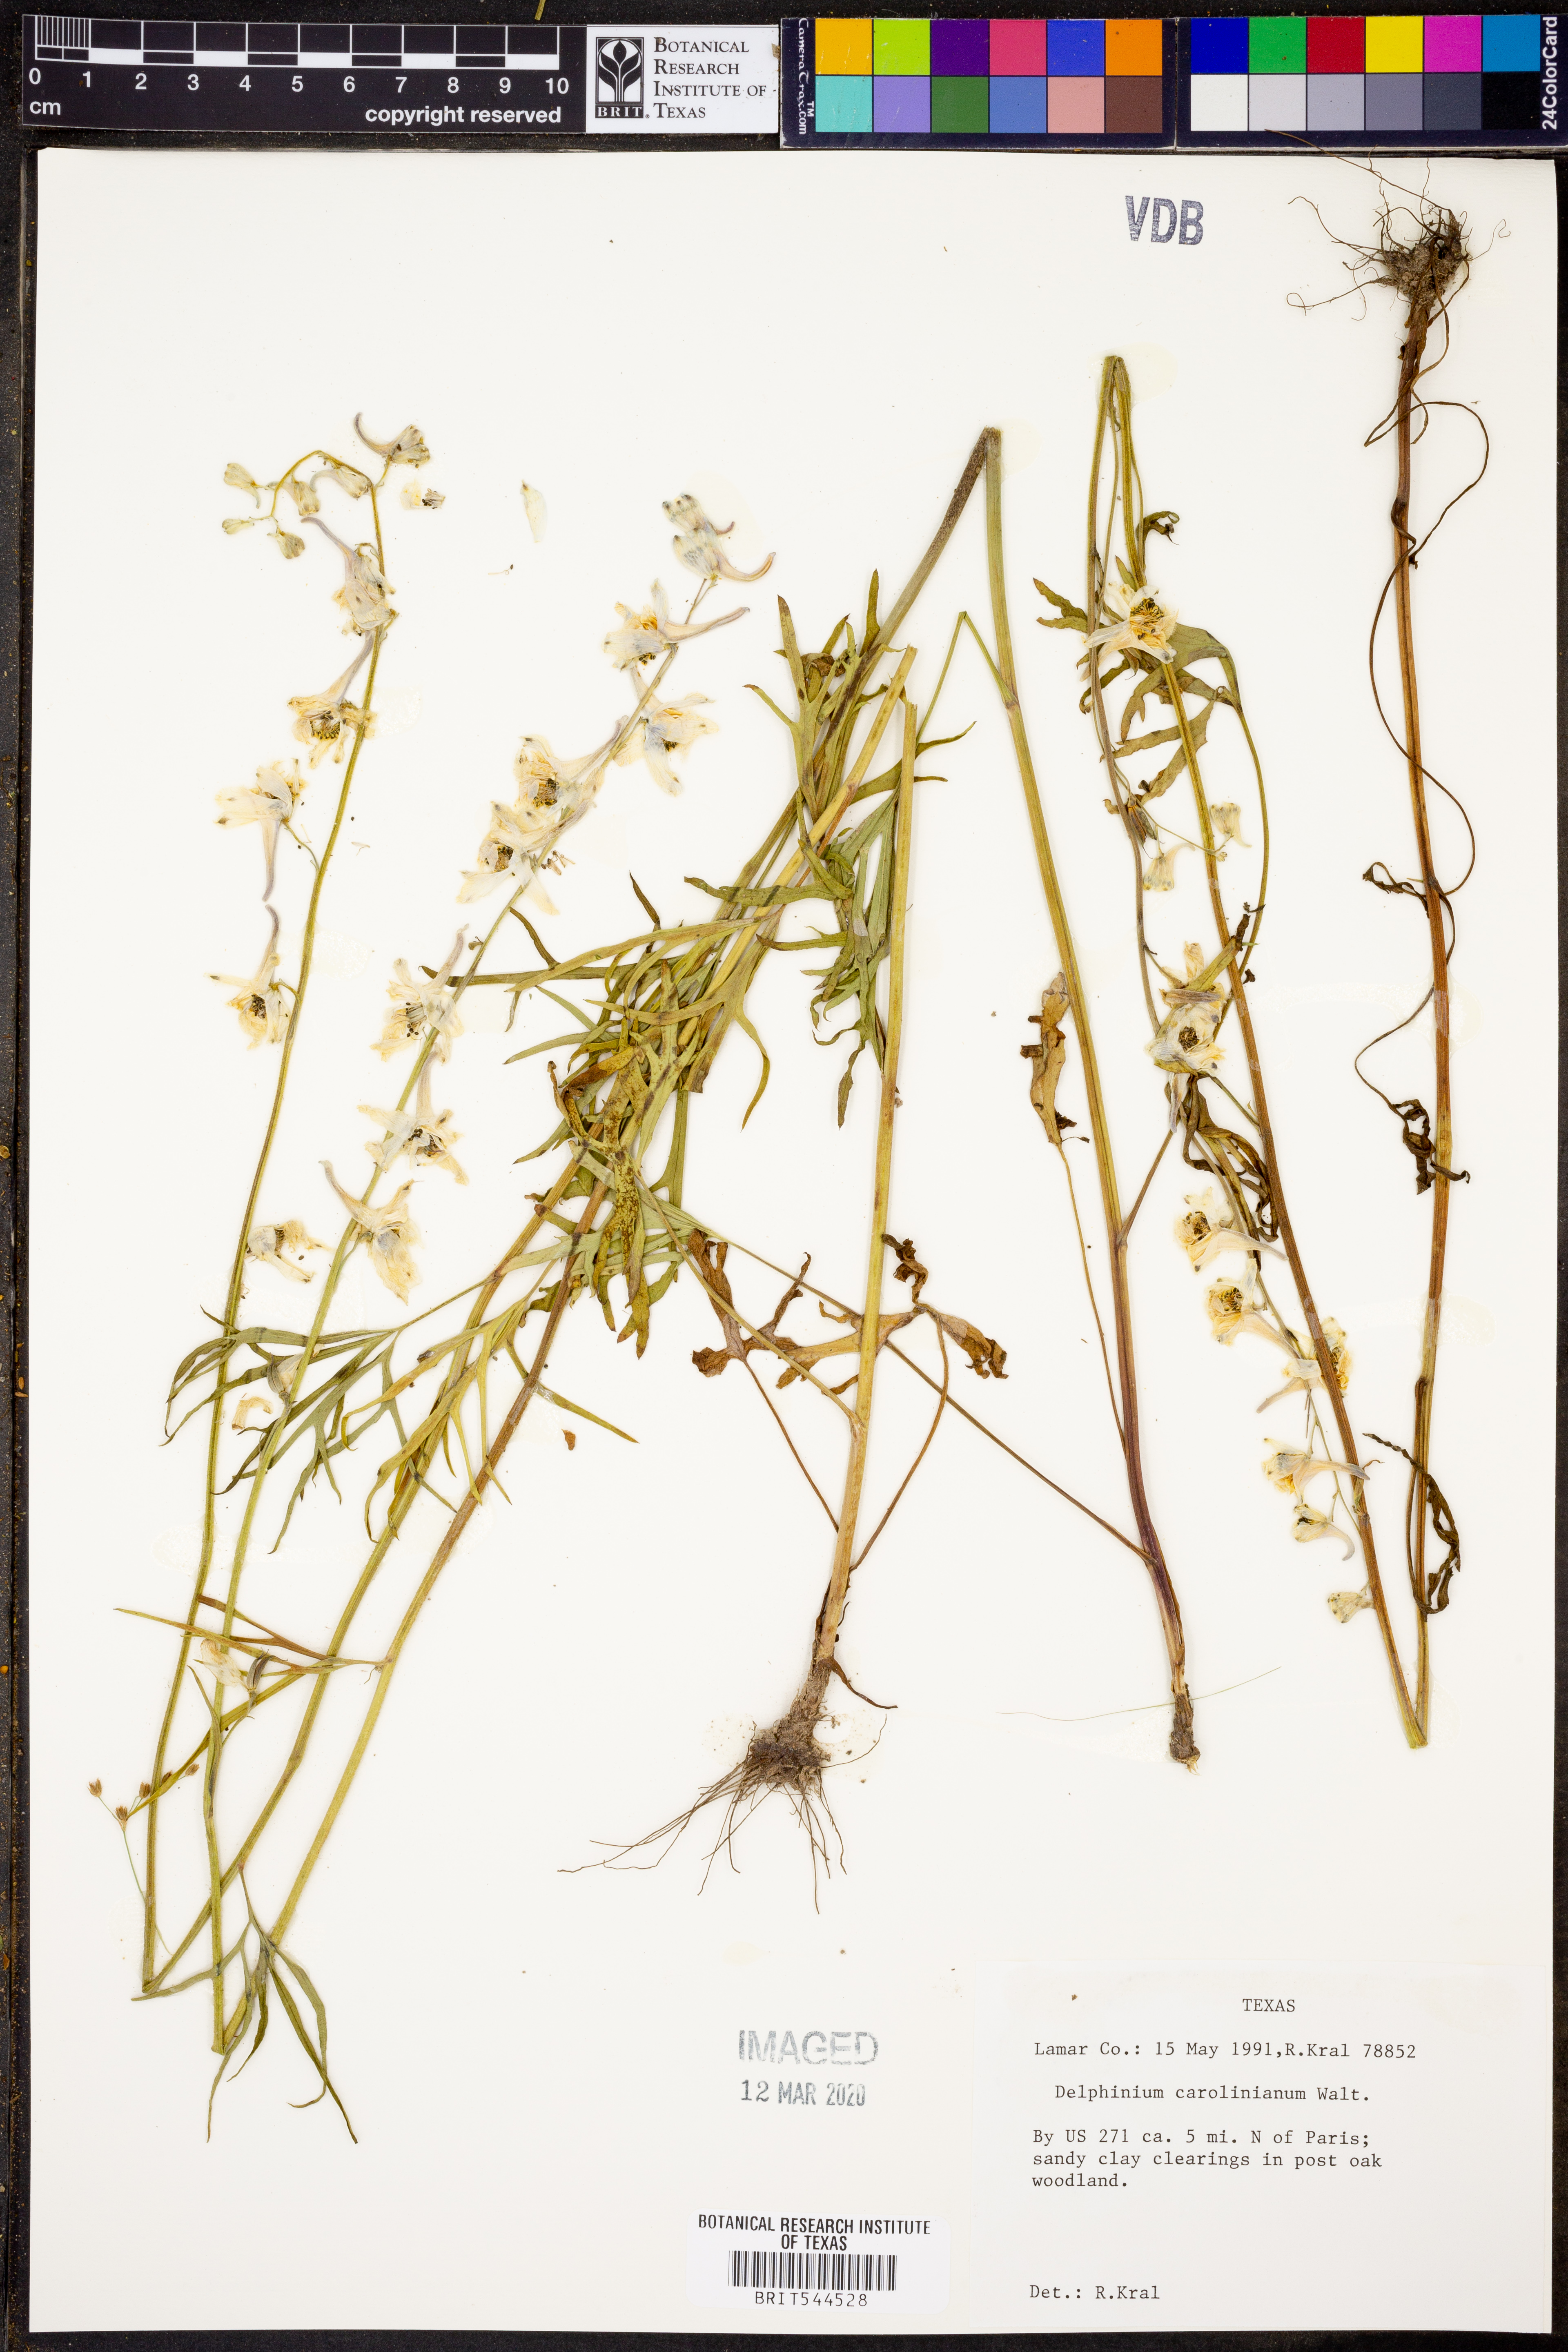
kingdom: Plantae
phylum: Tracheophyta
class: Magnoliopsida
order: Ranunculales
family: Ranunculaceae
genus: Delphinium
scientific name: Delphinium carolinianum
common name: Carolina larkspur
